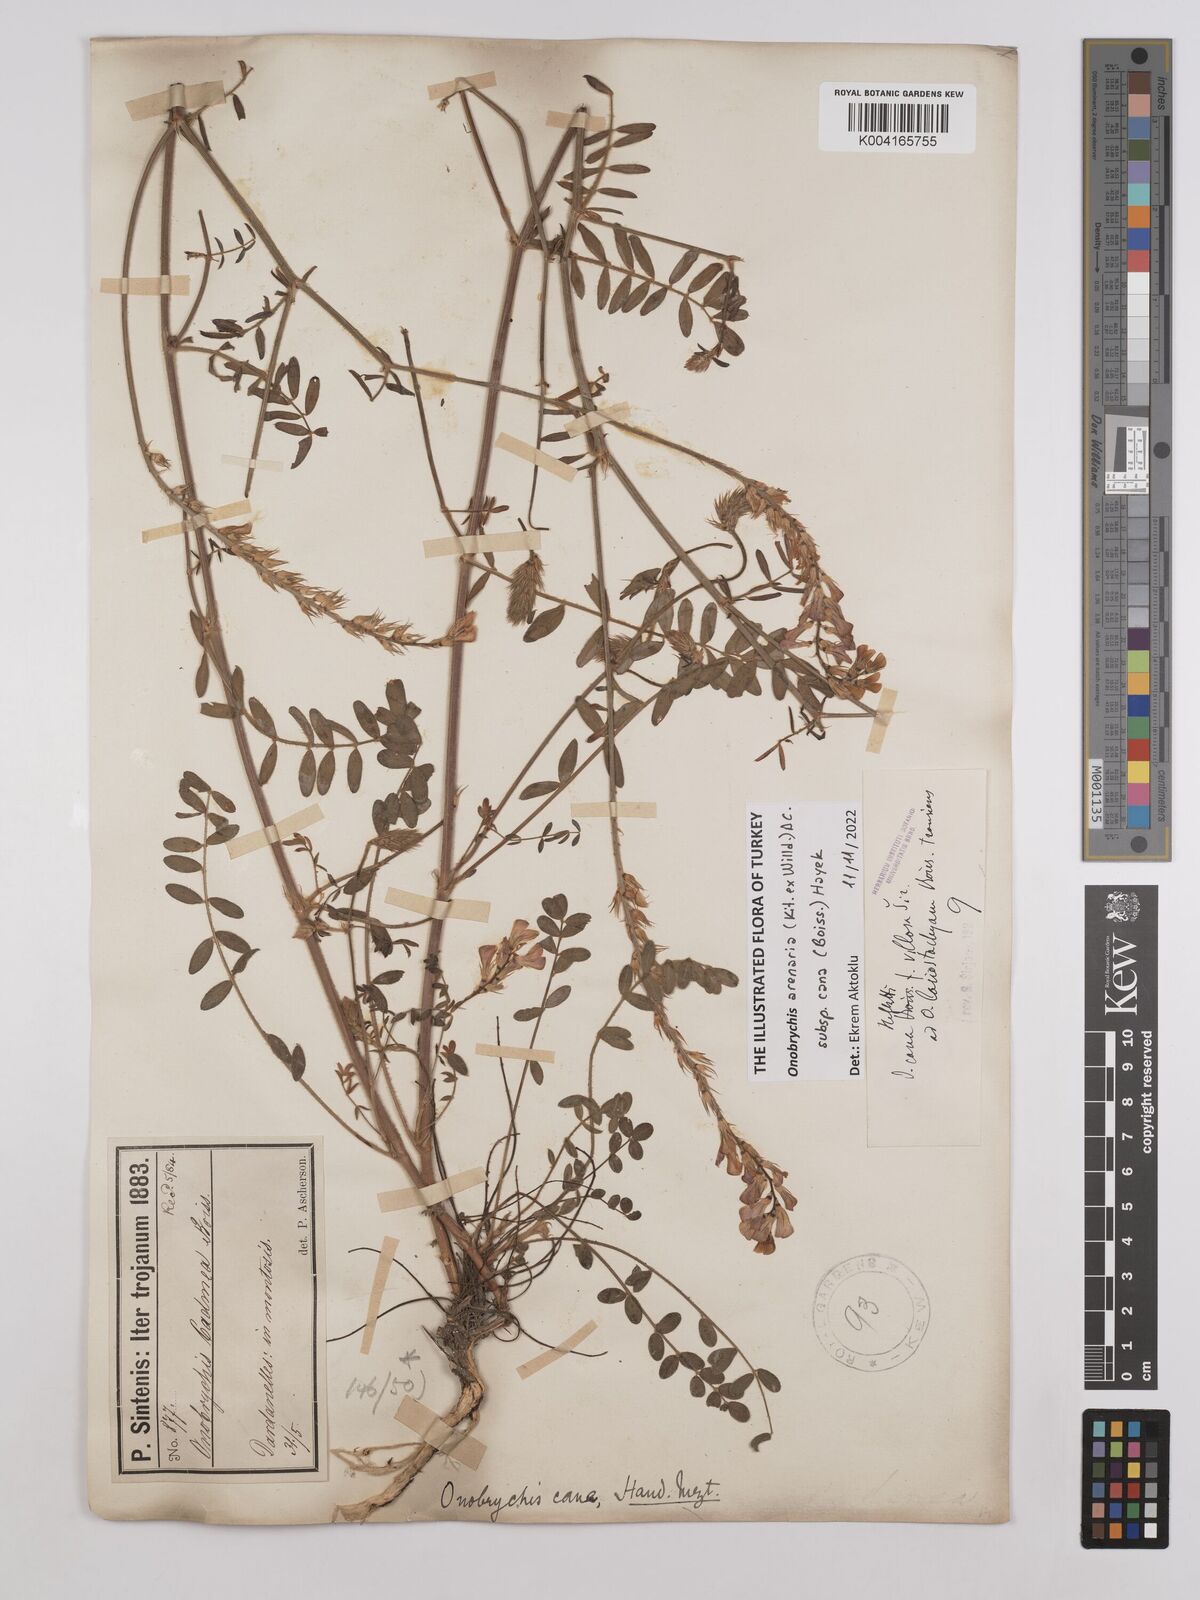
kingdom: Plantae
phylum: Tracheophyta
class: Magnoliopsida
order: Fabales
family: Fabaceae
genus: Onobrychis
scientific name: Onobrychis arenaria
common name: Sand esparcet
